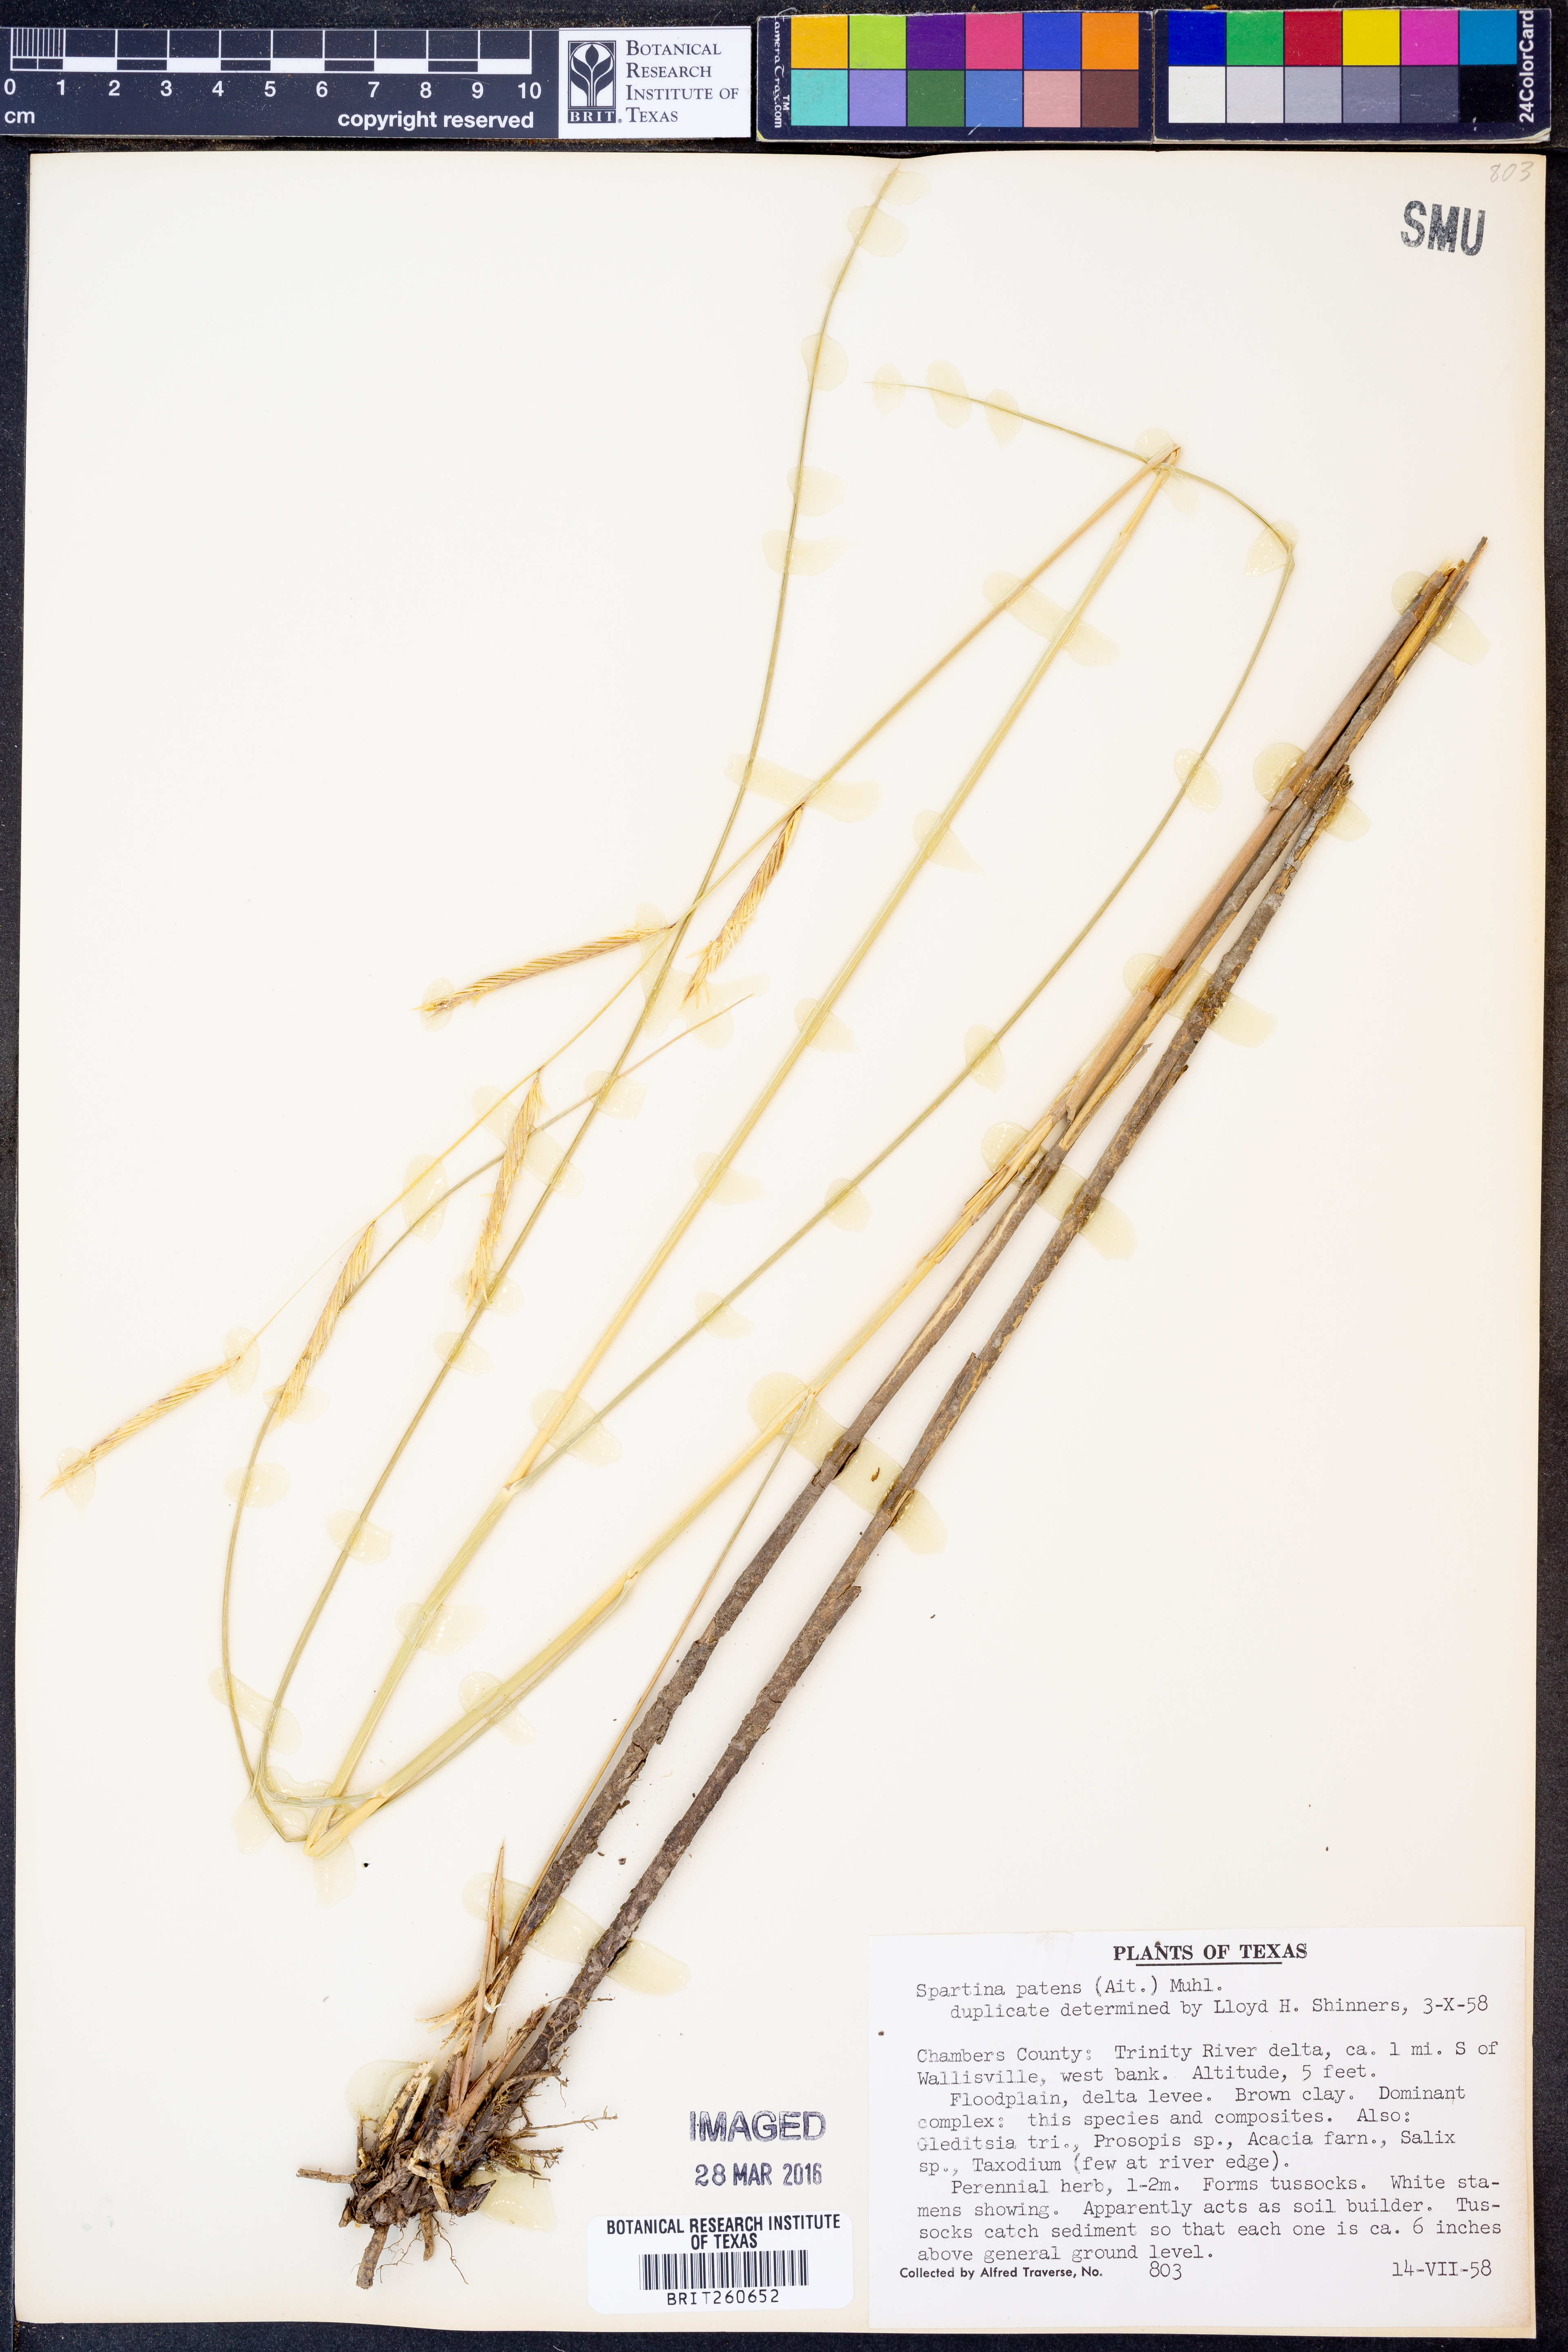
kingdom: Plantae
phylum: Tracheophyta
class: Liliopsida
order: Poales
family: Poaceae
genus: Sporobolus
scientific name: Sporobolus pumilus
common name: Highwater grass
